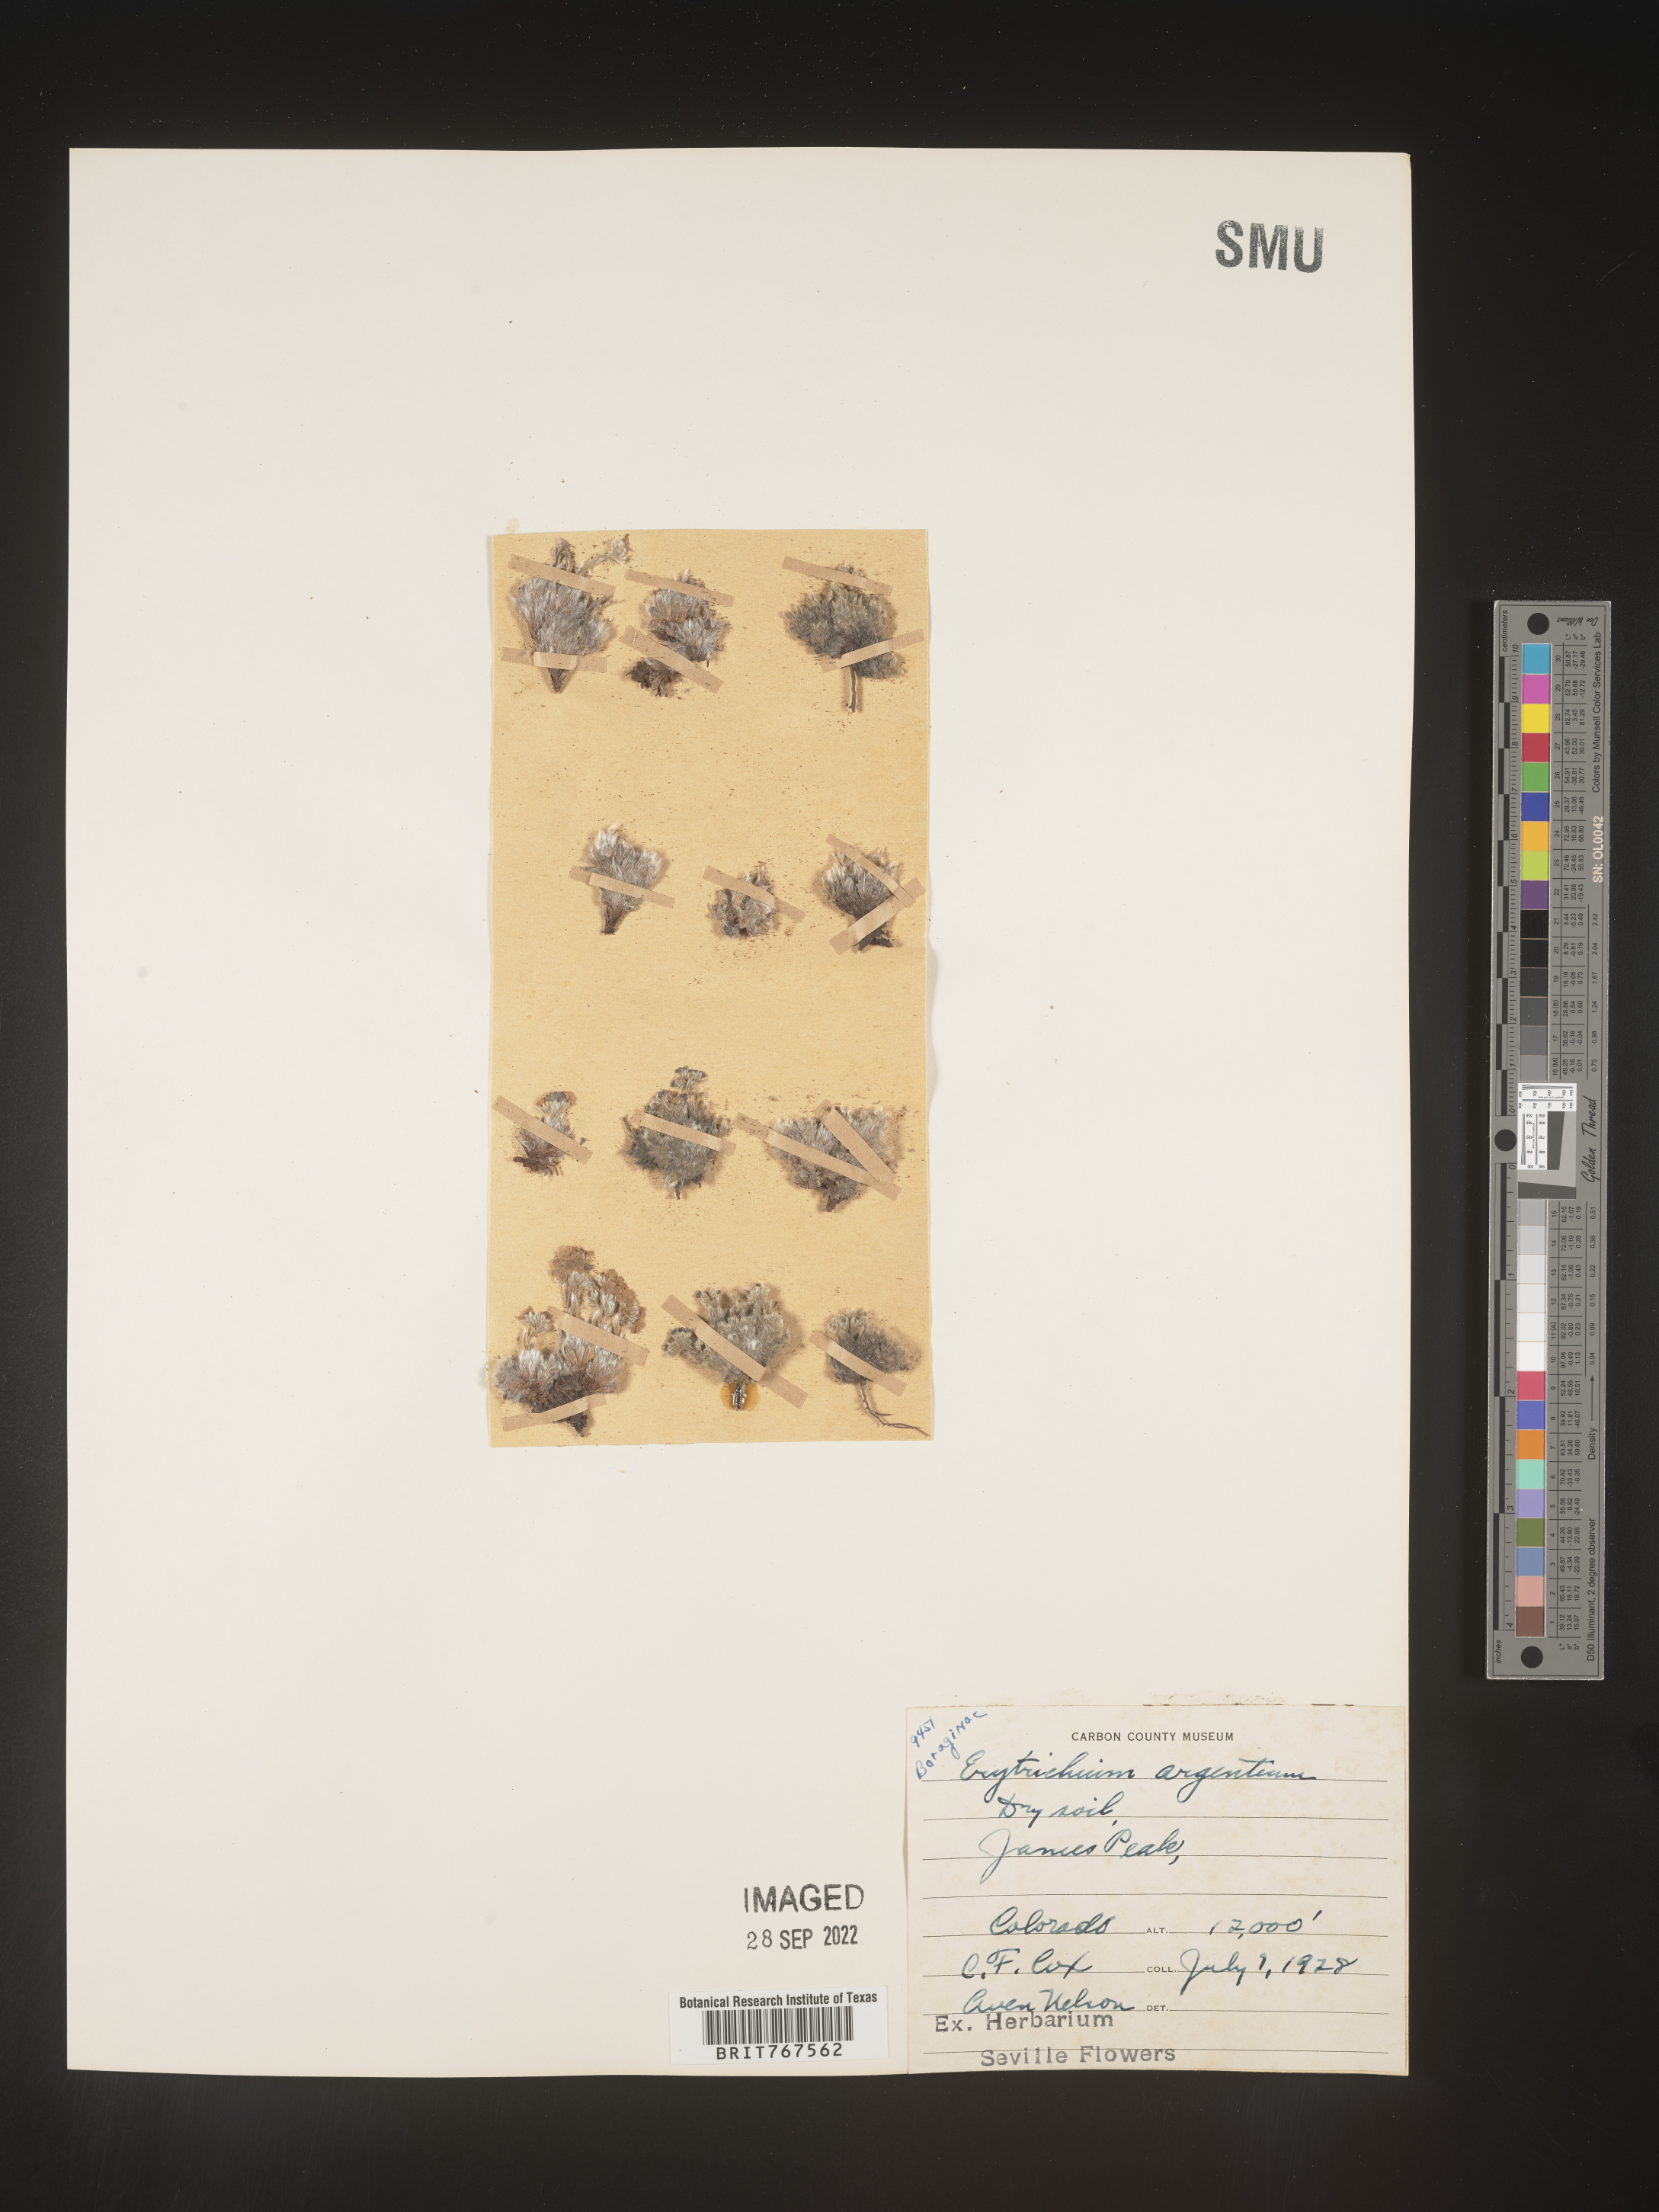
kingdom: Plantae
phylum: Tracheophyta
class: Magnoliopsida
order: Boraginales
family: Boraginaceae
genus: Eritrichium
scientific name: Eritrichium
